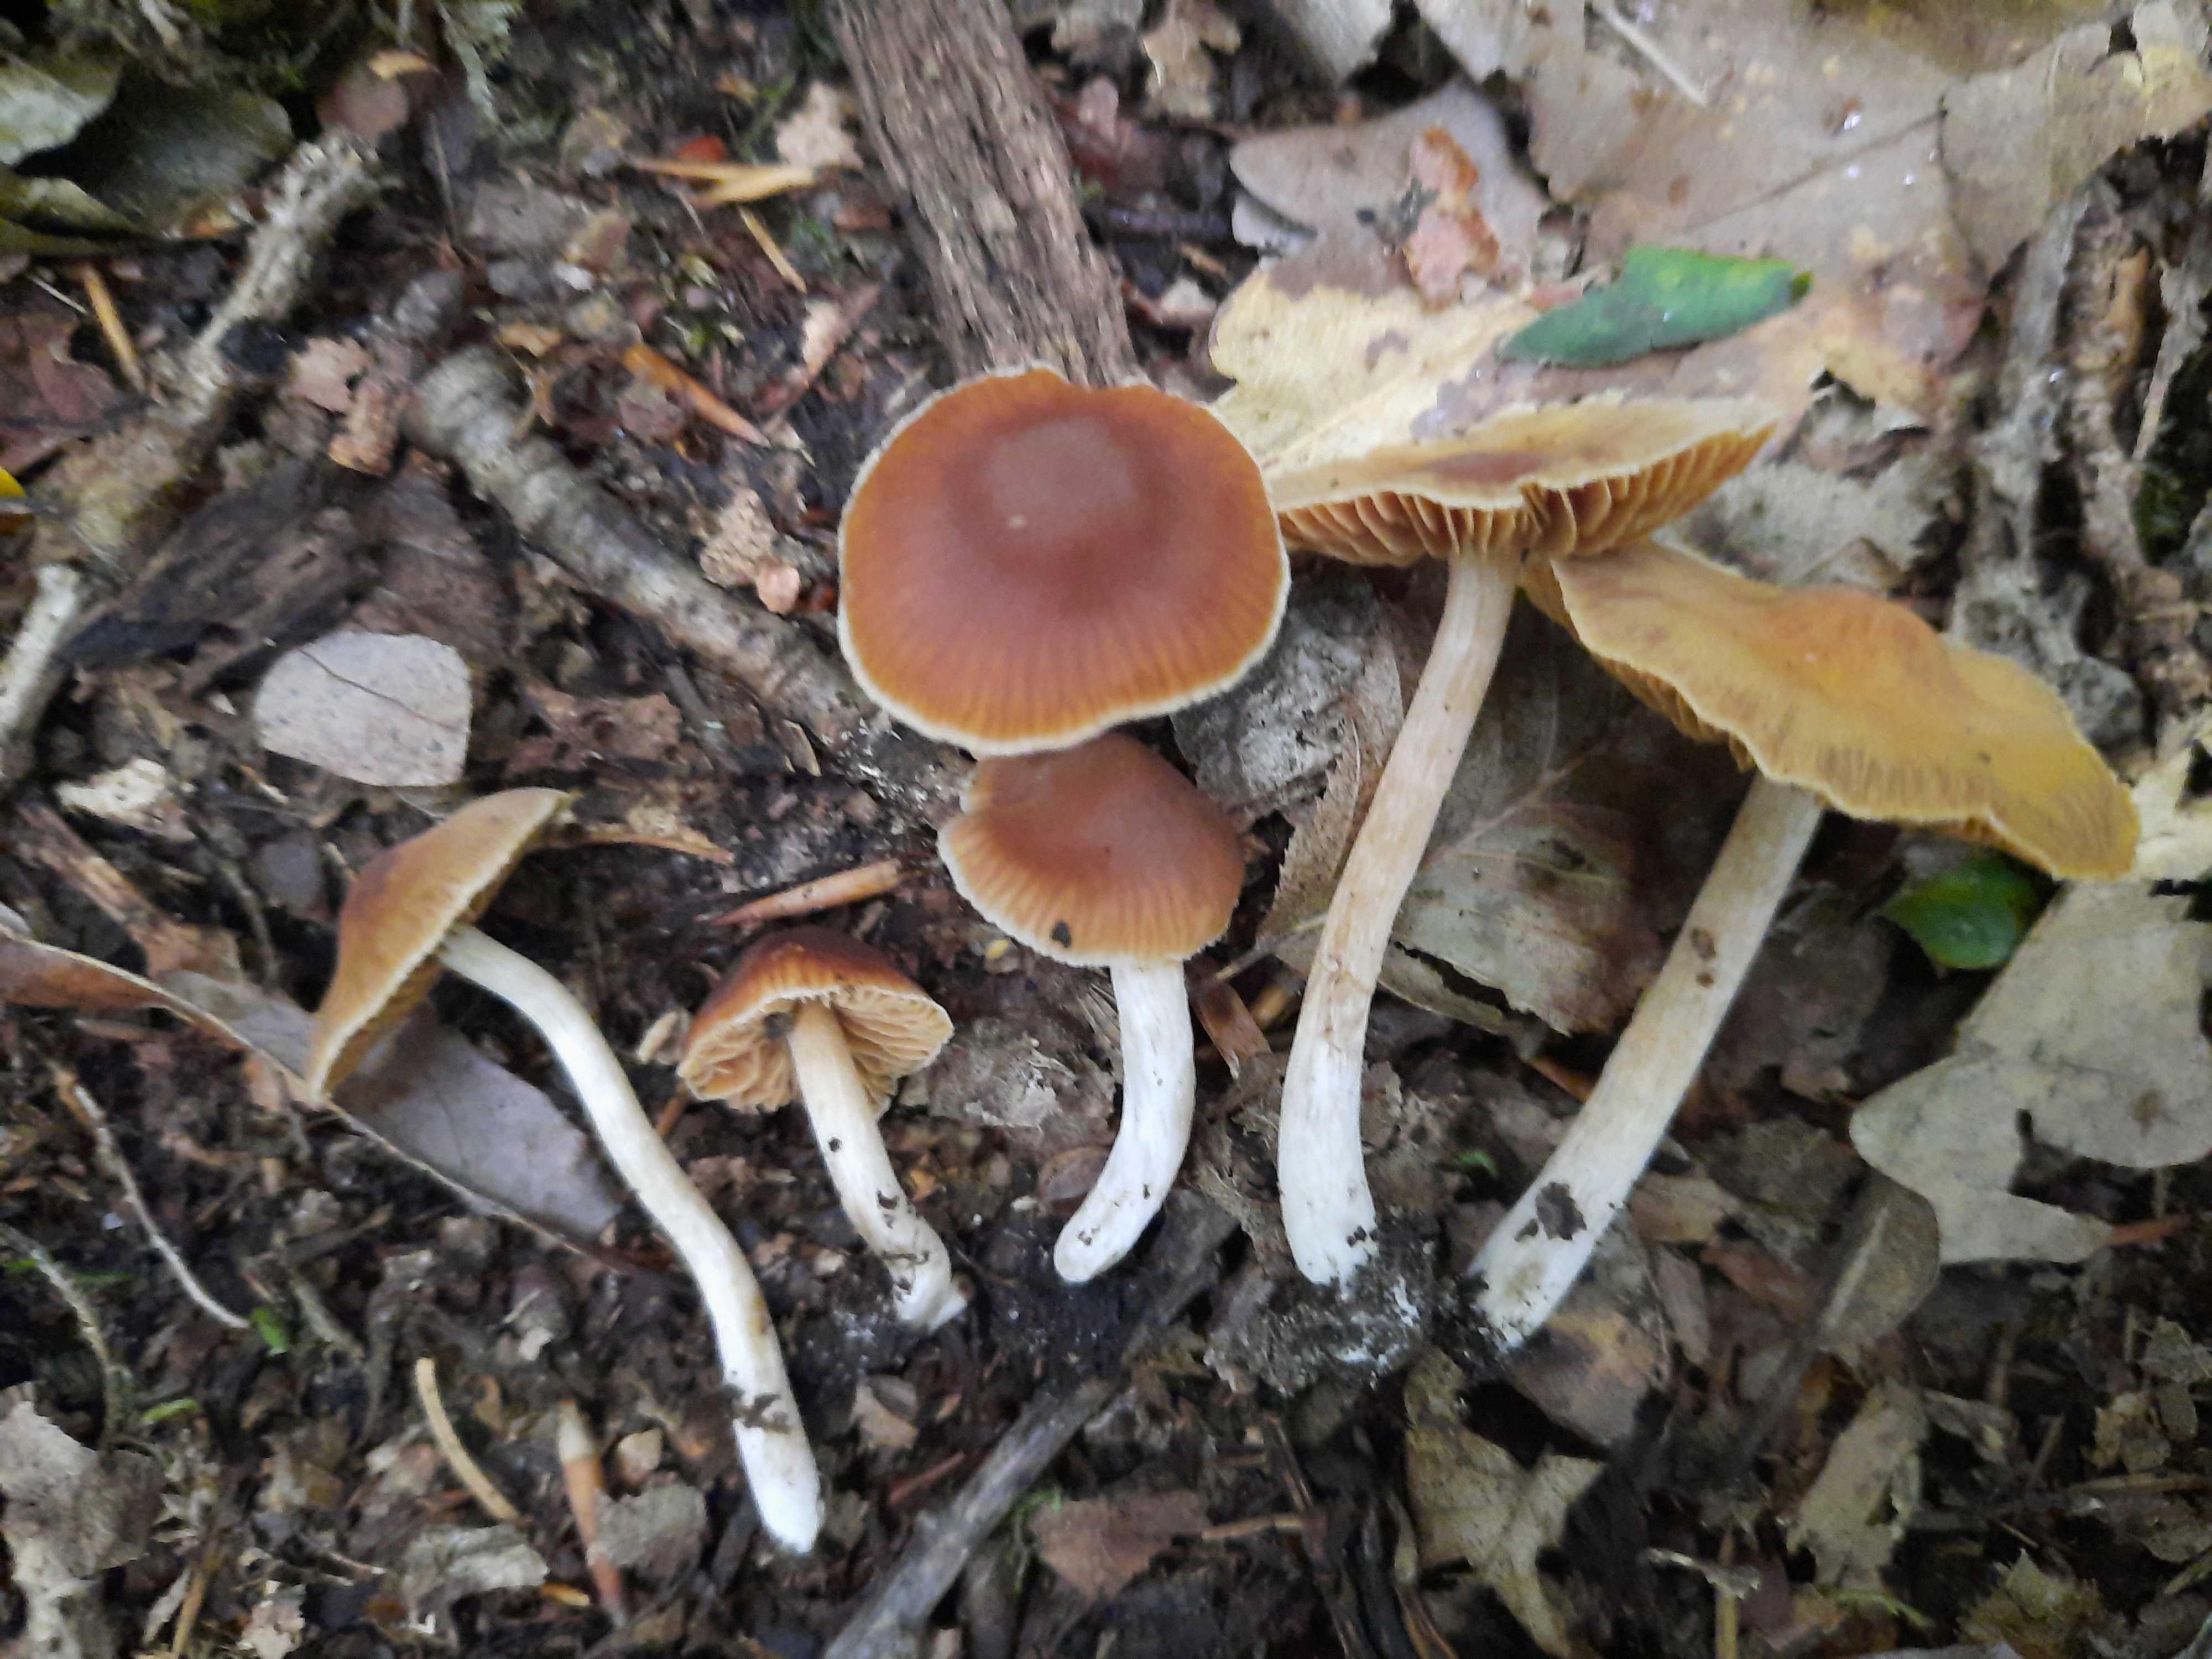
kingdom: Fungi
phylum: Basidiomycota
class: Agaricomycetes
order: Agaricales
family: Cortinariaceae
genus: Cortinarius
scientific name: Cortinarius incisus
